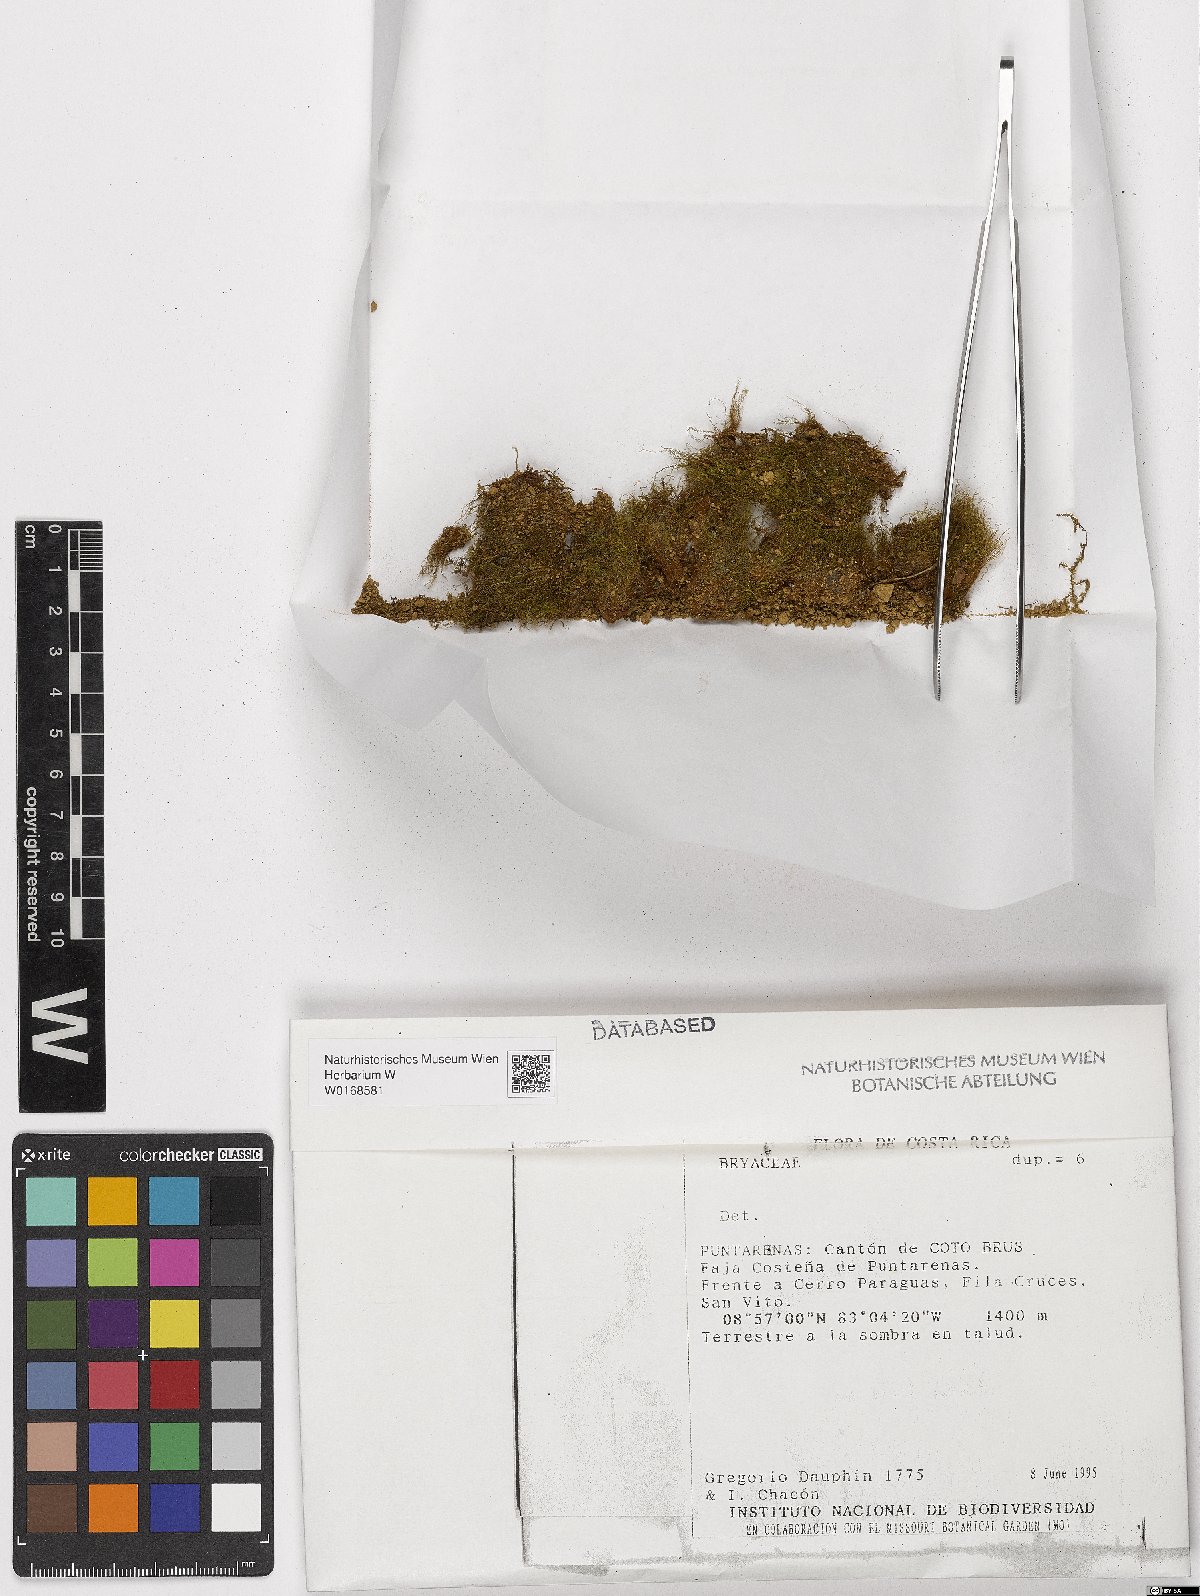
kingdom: Plantae
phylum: Bryophyta
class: Bryopsida
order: Bryales
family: Bryaceae
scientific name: Bryaceae
